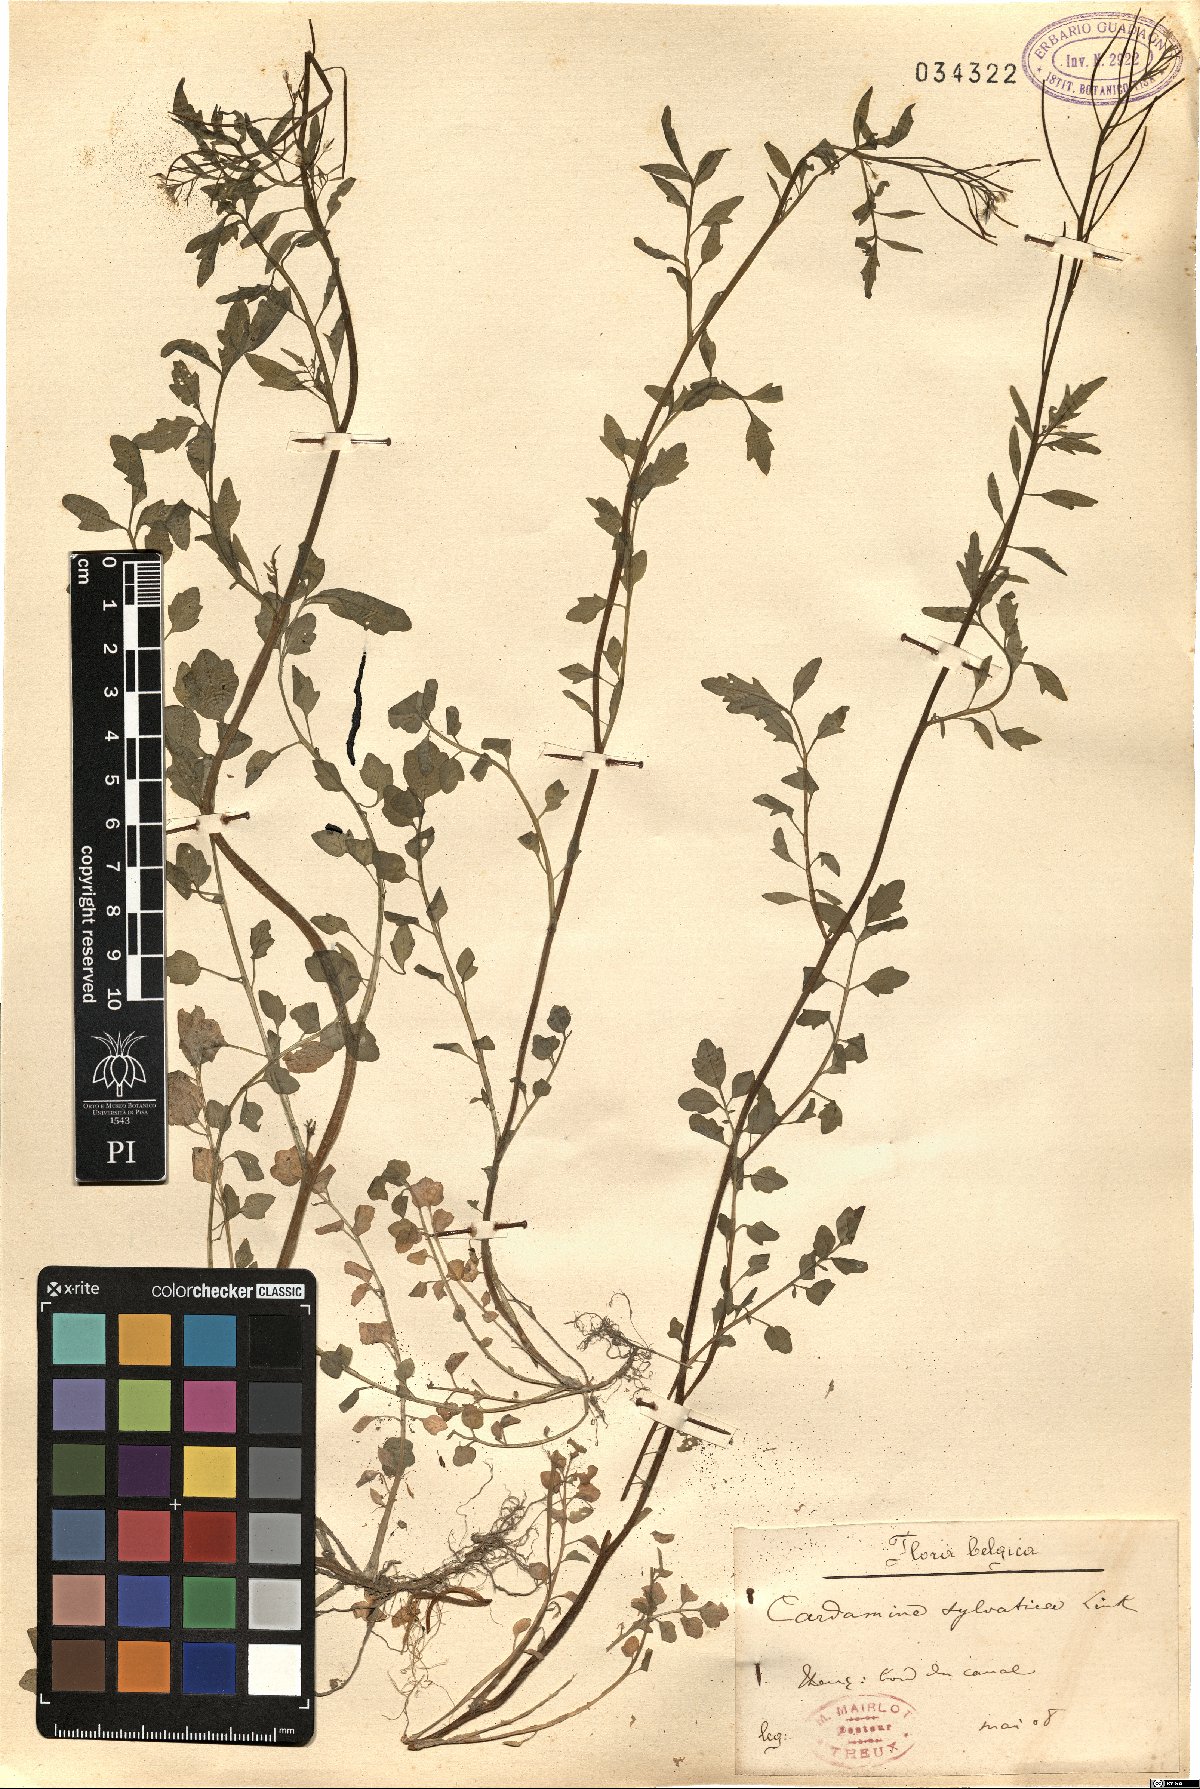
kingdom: Plantae
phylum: Tracheophyta
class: Magnoliopsida
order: Brassicales
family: Brassicaceae
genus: Cardamine
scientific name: Cardamine flexuosa
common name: Woodland bittercress
